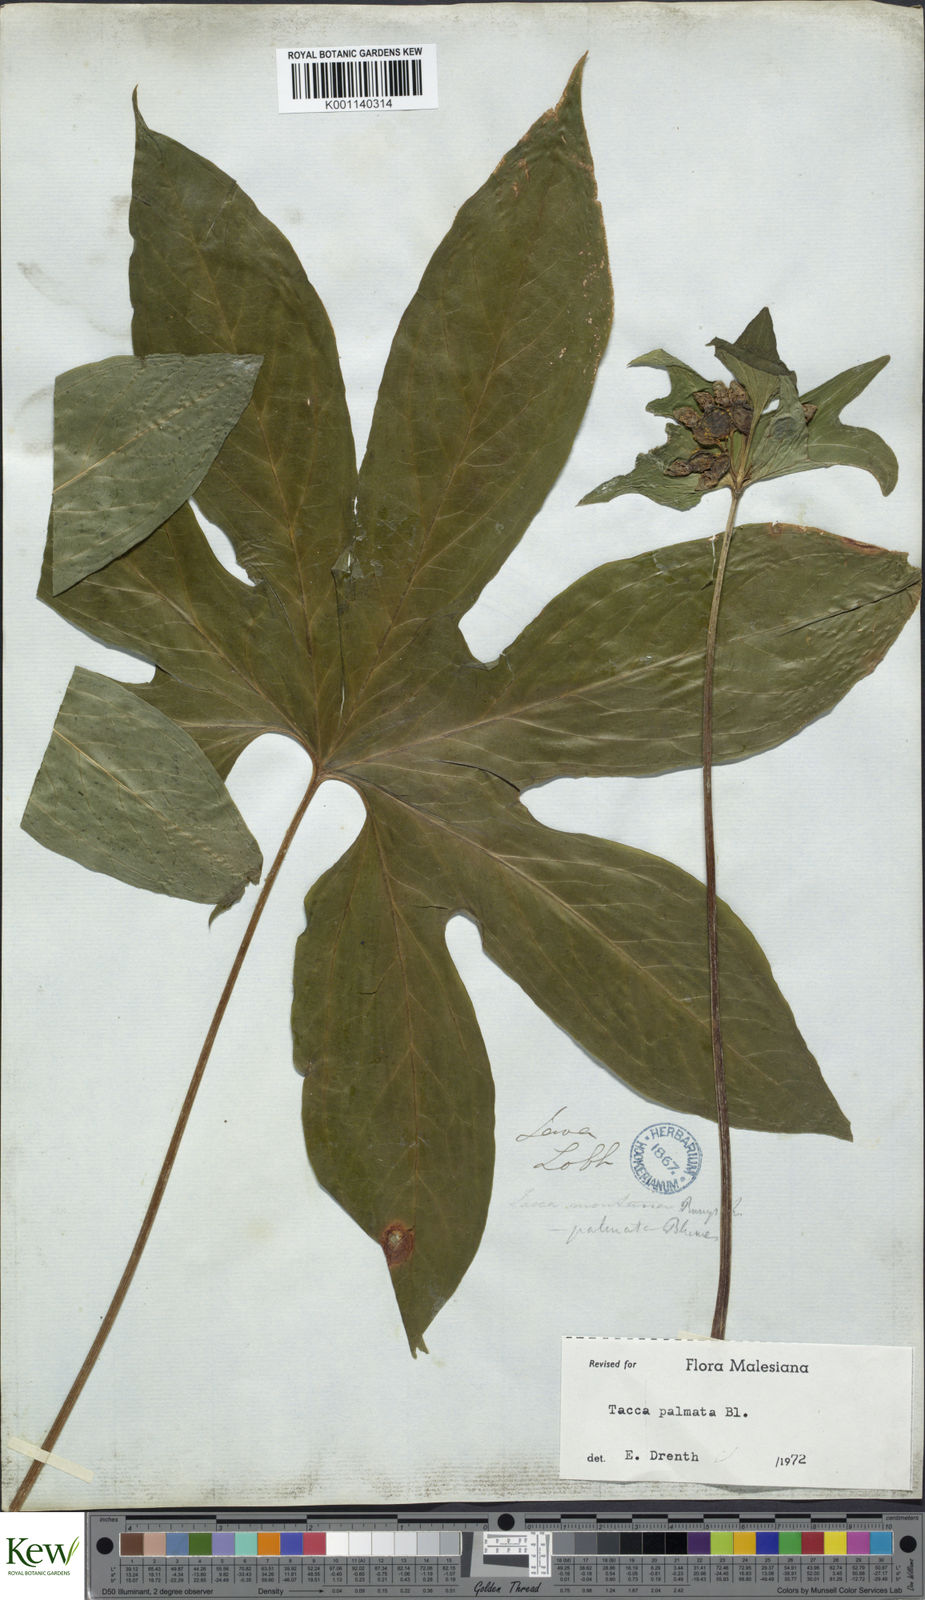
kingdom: Plantae
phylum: Tracheophyta
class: Liliopsida
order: Dioscoreales
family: Dioscoreaceae
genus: Tacca
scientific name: Tacca palmata
